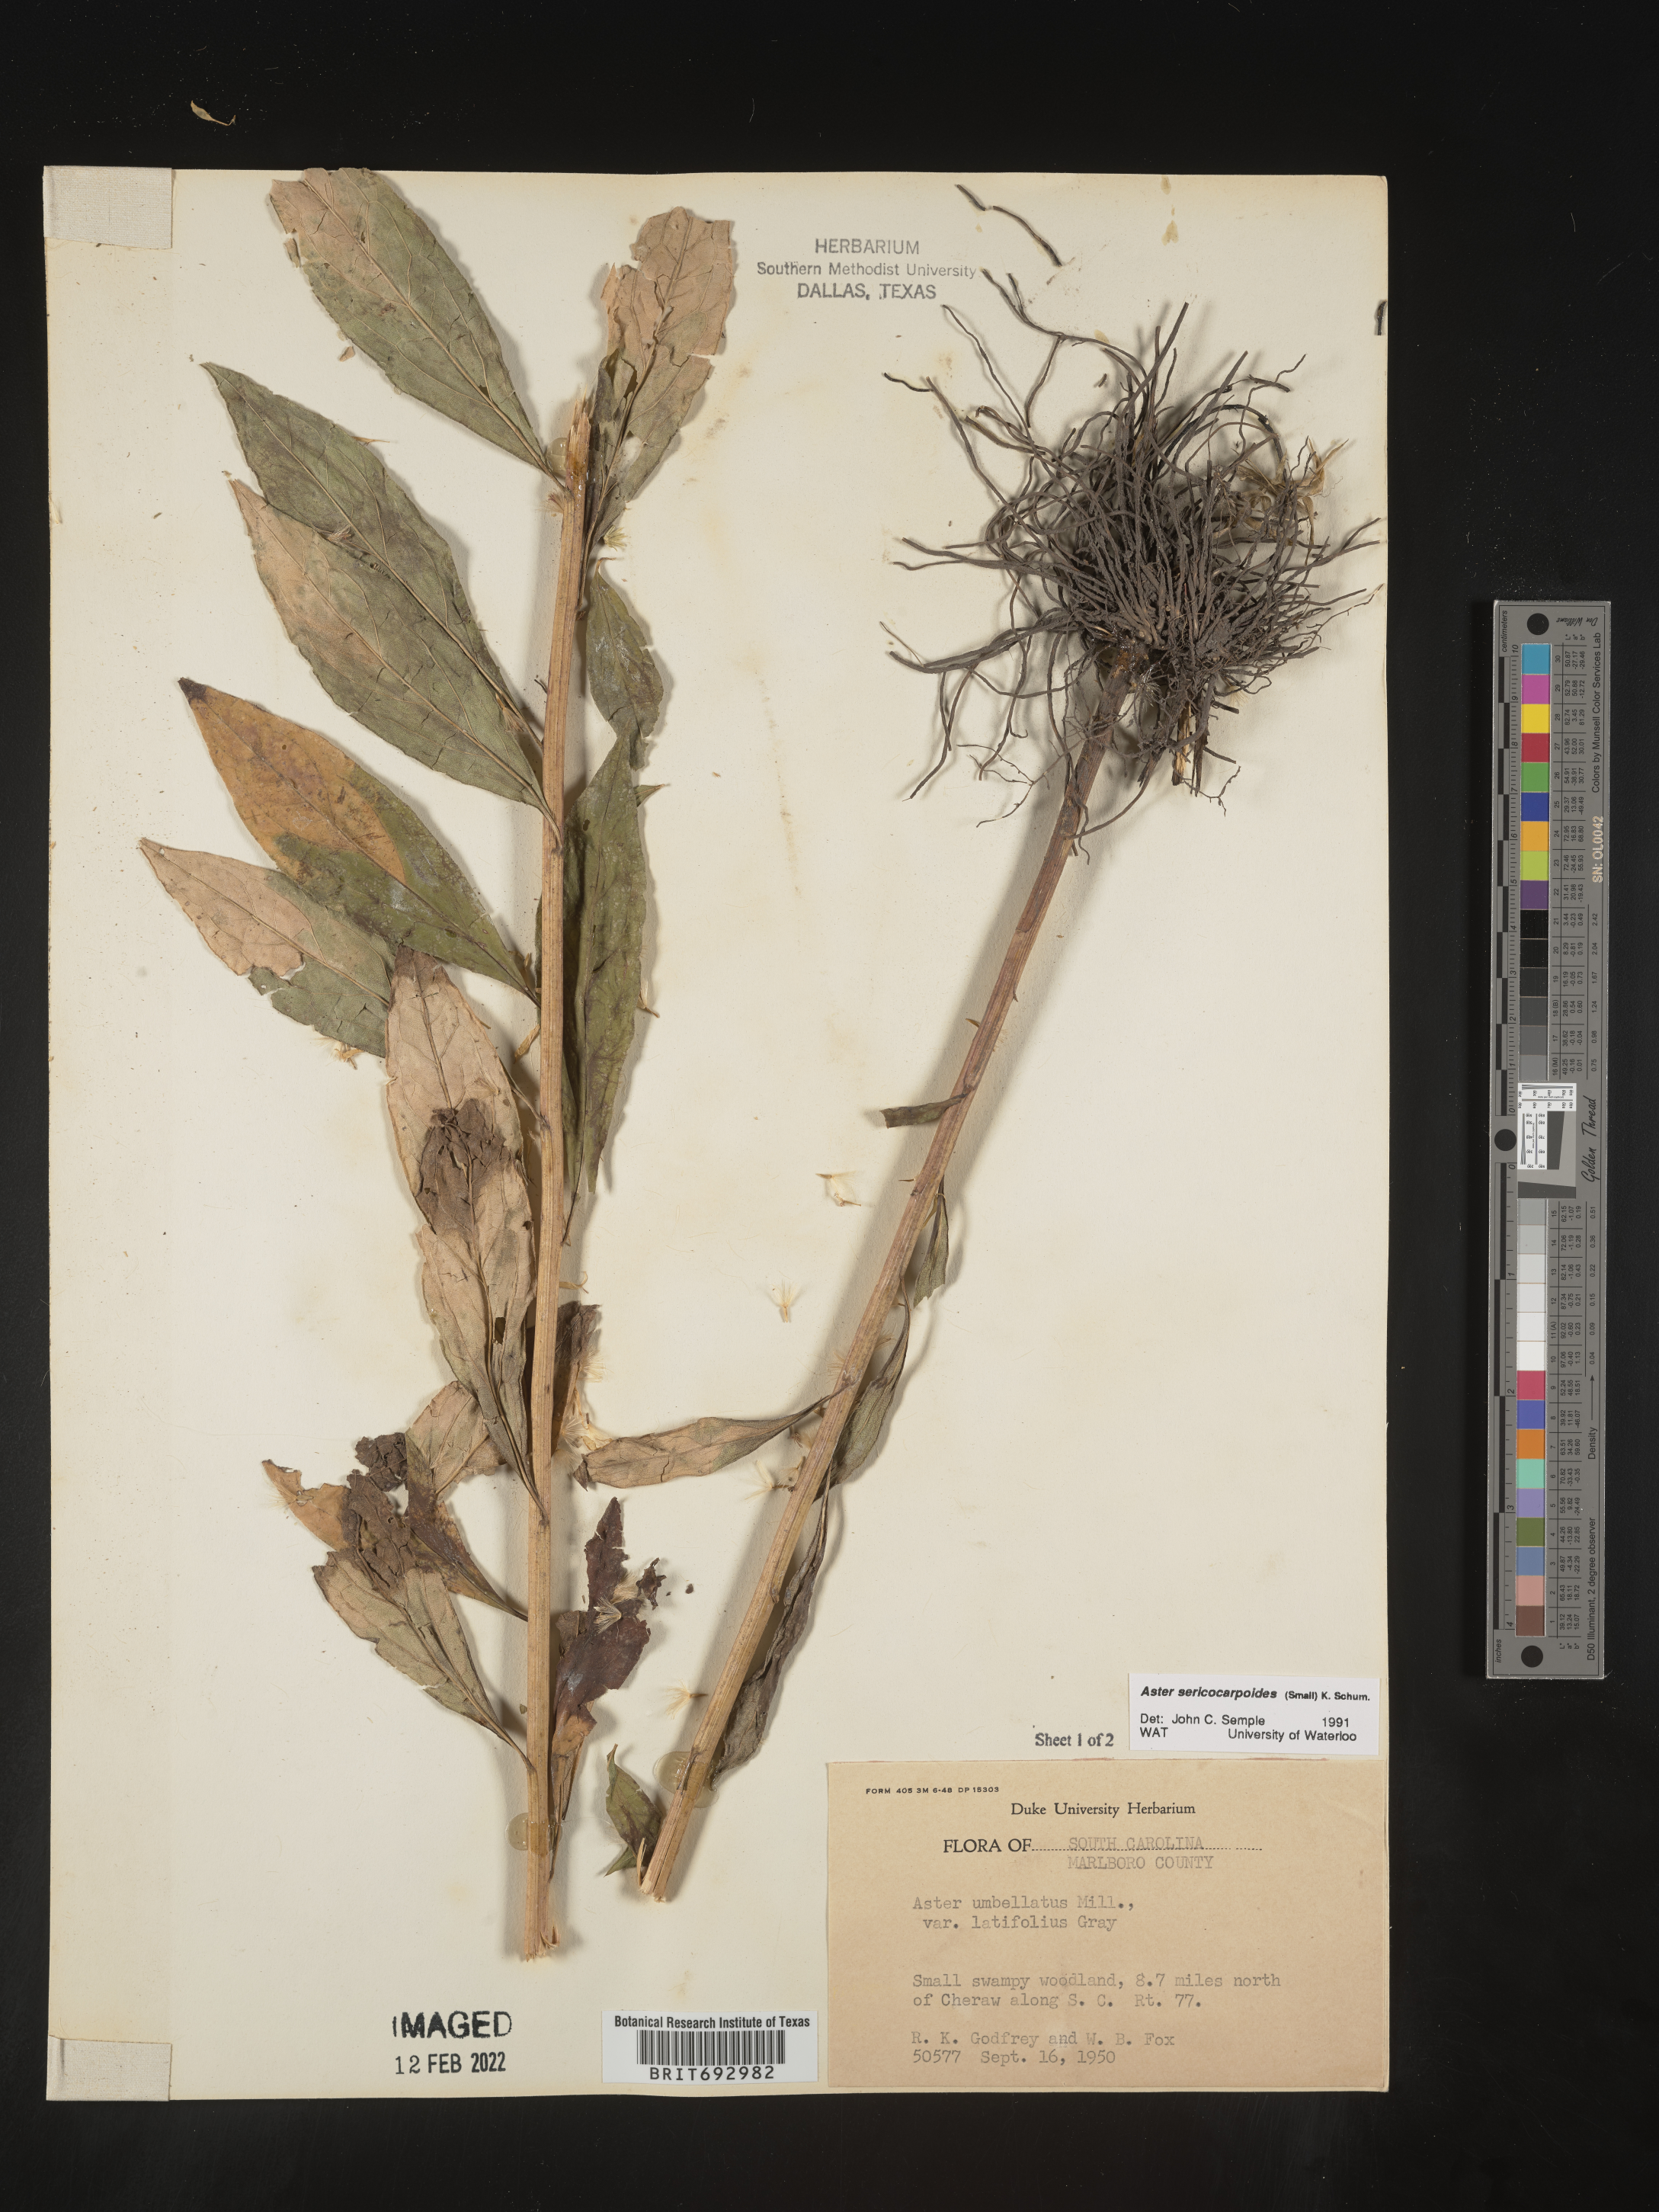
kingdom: Plantae
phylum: Tracheophyta
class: Magnoliopsida
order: Asterales
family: Asteraceae
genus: Doellingeria
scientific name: Doellingeria sericocarpoides
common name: Southern tall flat-top aster
